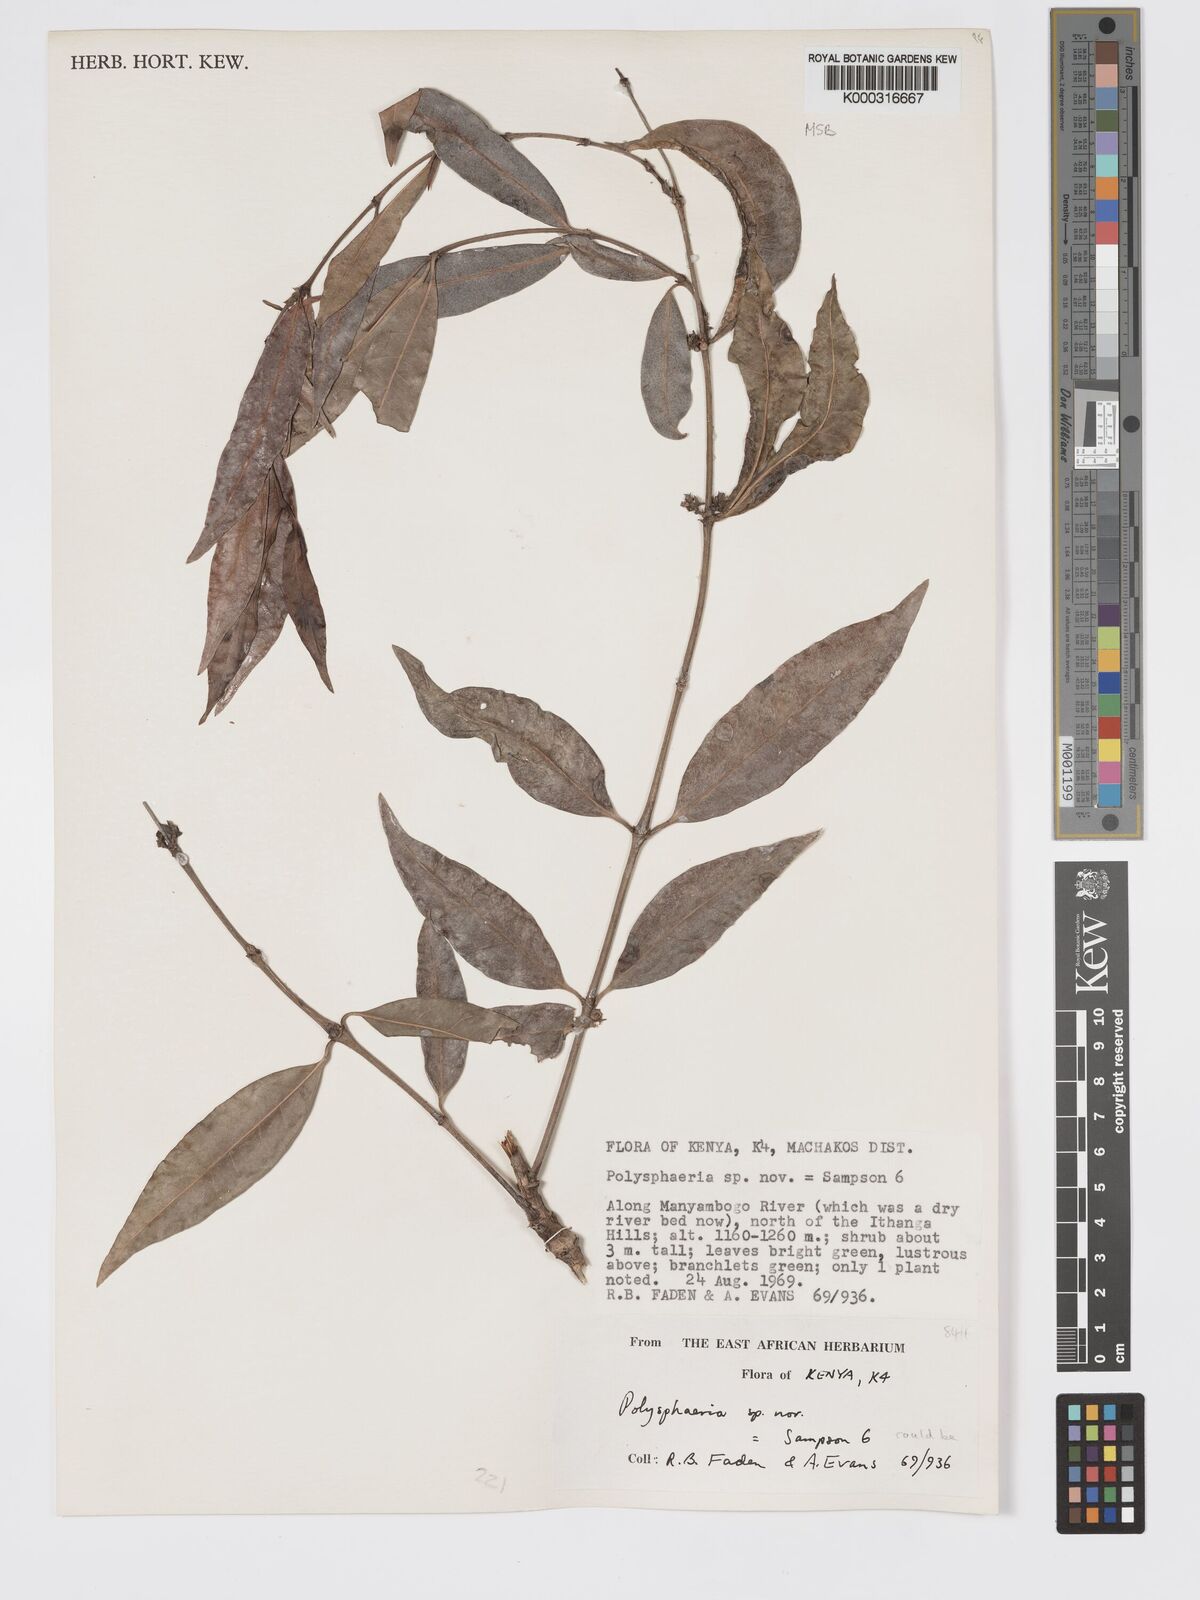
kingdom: Plantae
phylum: Tracheophyta
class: Magnoliopsida
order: Gentianales
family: Rubiaceae
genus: Polysphaeria
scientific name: Polysphaeria cleistocalyx
